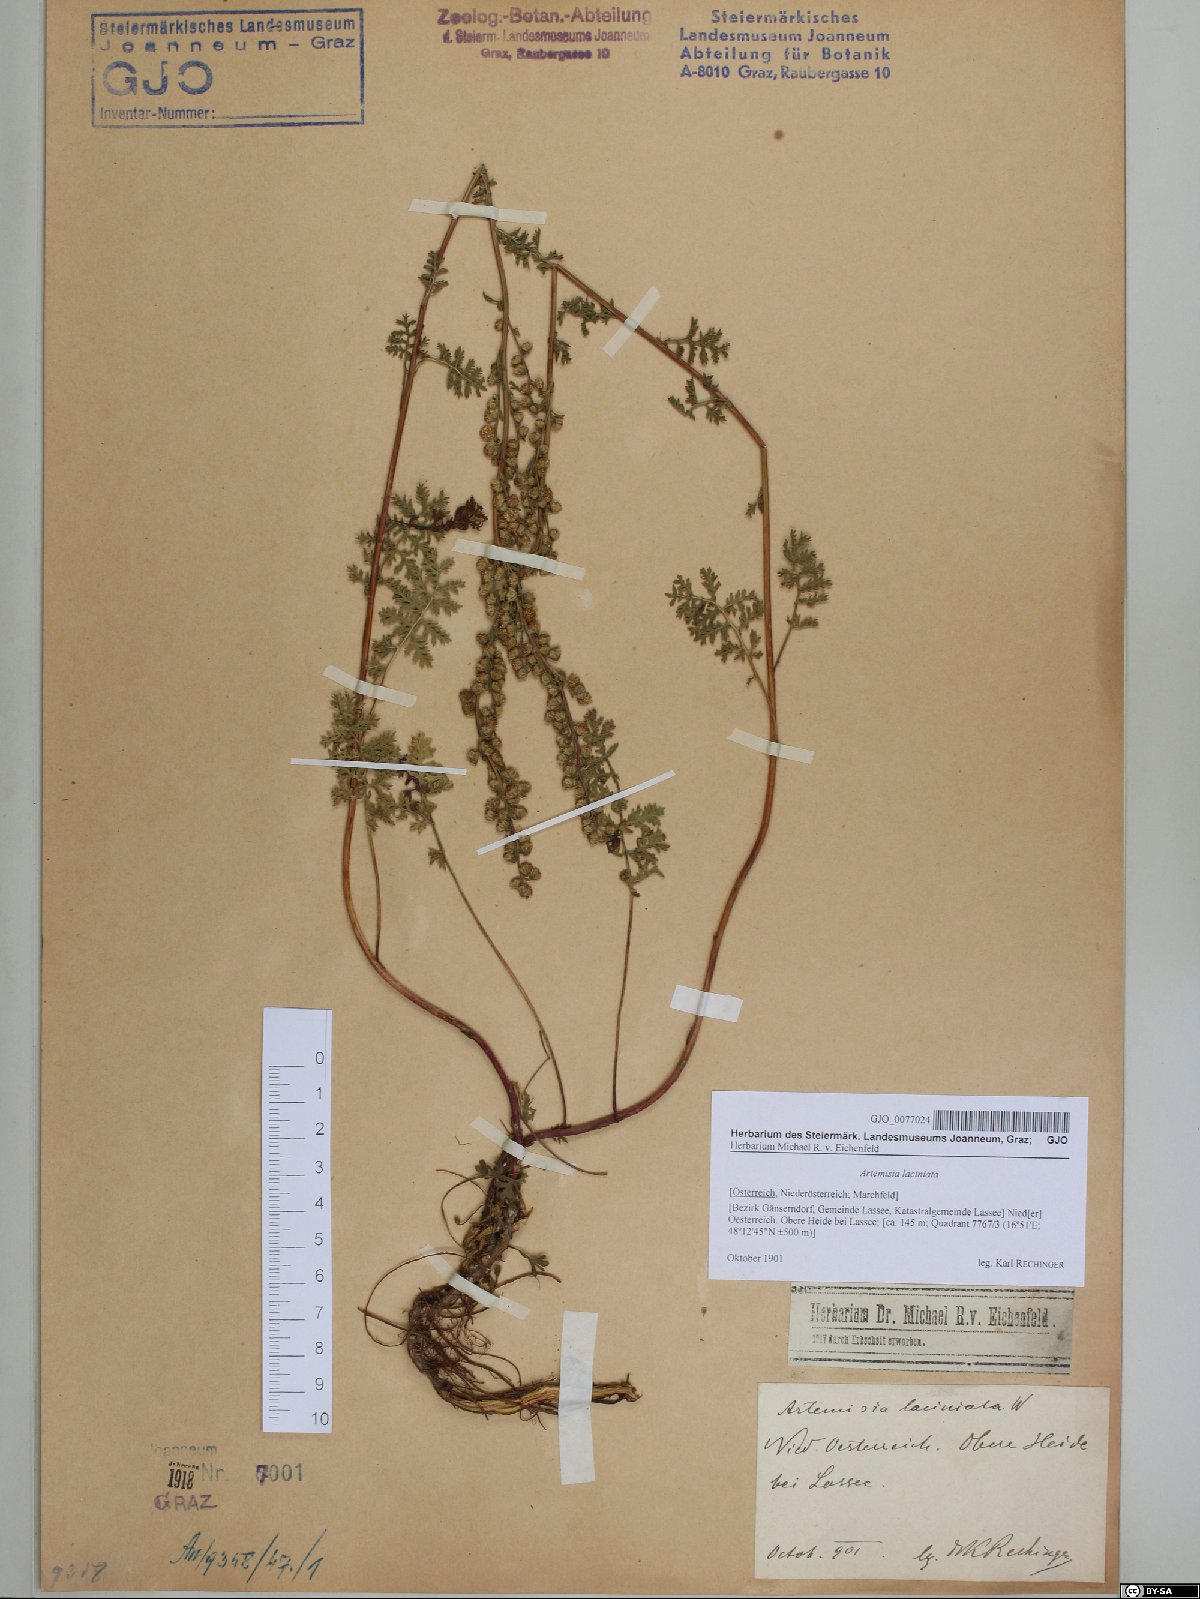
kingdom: Plantae
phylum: Tracheophyta
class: Magnoliopsida
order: Asterales
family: Asteraceae
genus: Artemisia
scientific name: Artemisia laciniata
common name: Siberian wormwood
